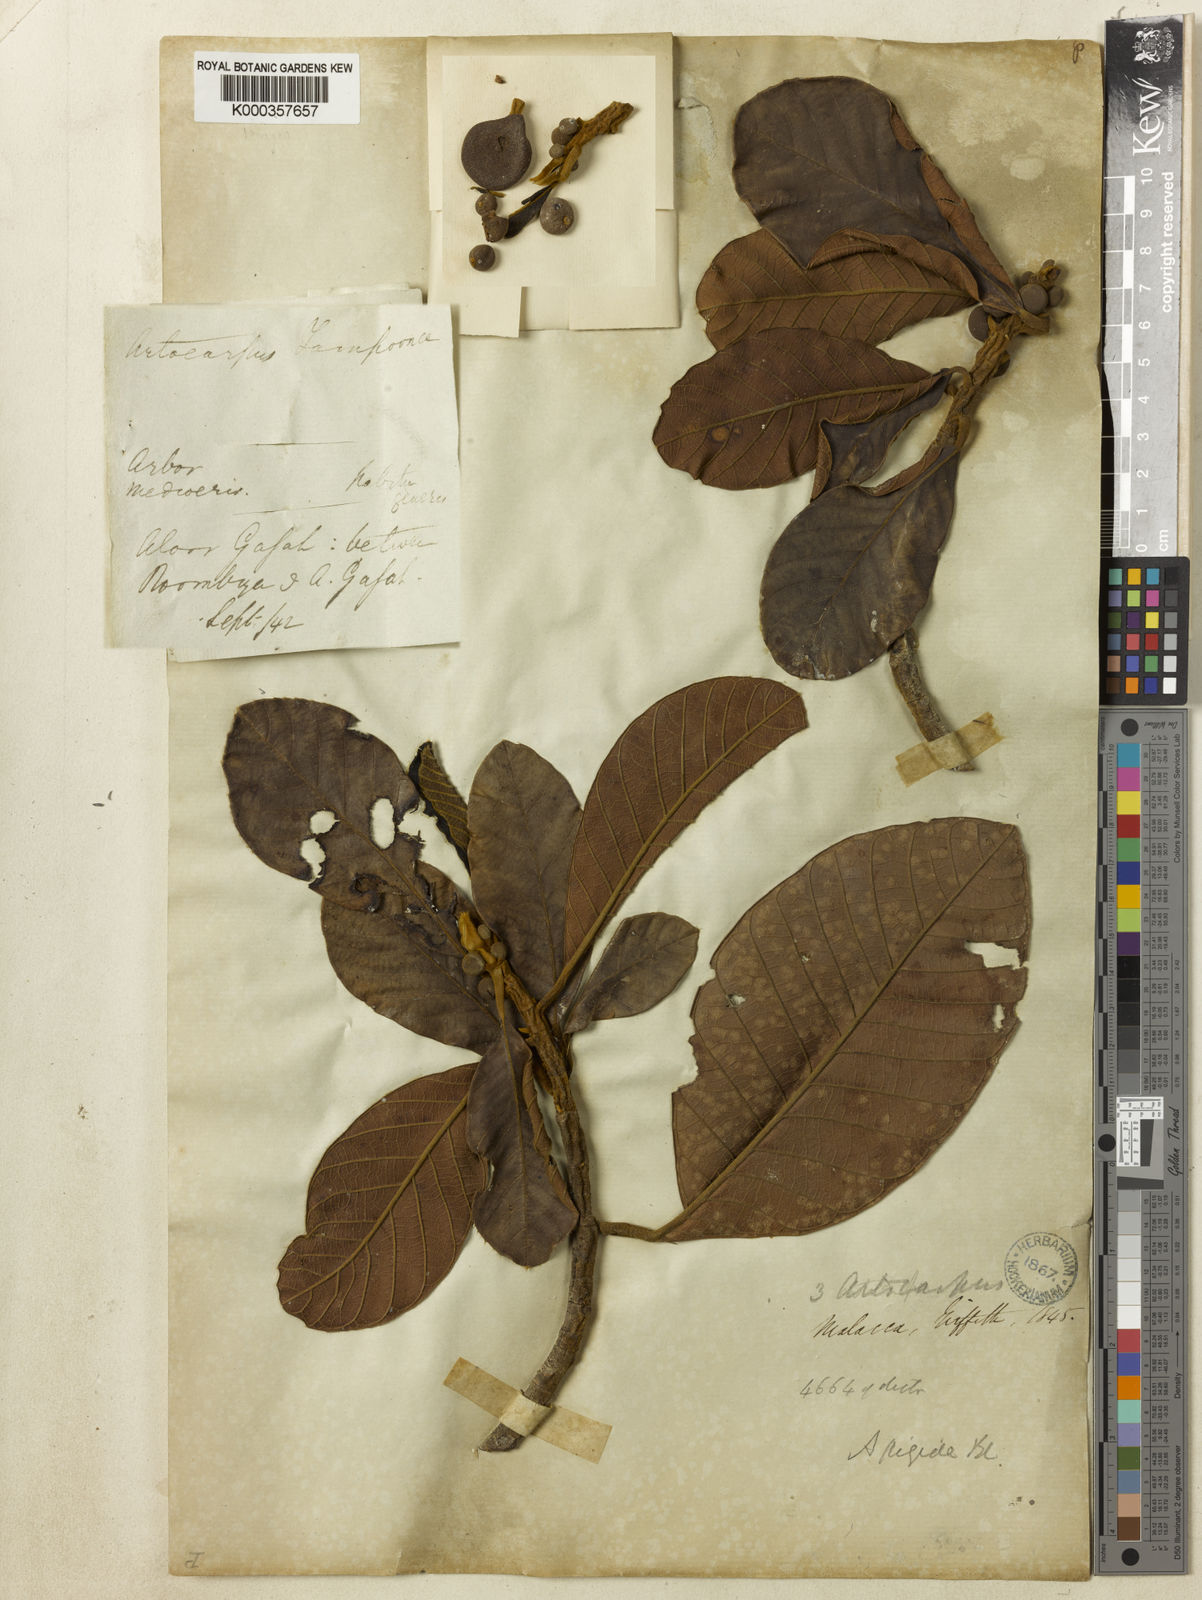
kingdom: Plantae
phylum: Tracheophyta
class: Magnoliopsida
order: Rosales
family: Moraceae
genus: Artocarpus
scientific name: Artocarpus rigidus
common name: Monkey-jack
